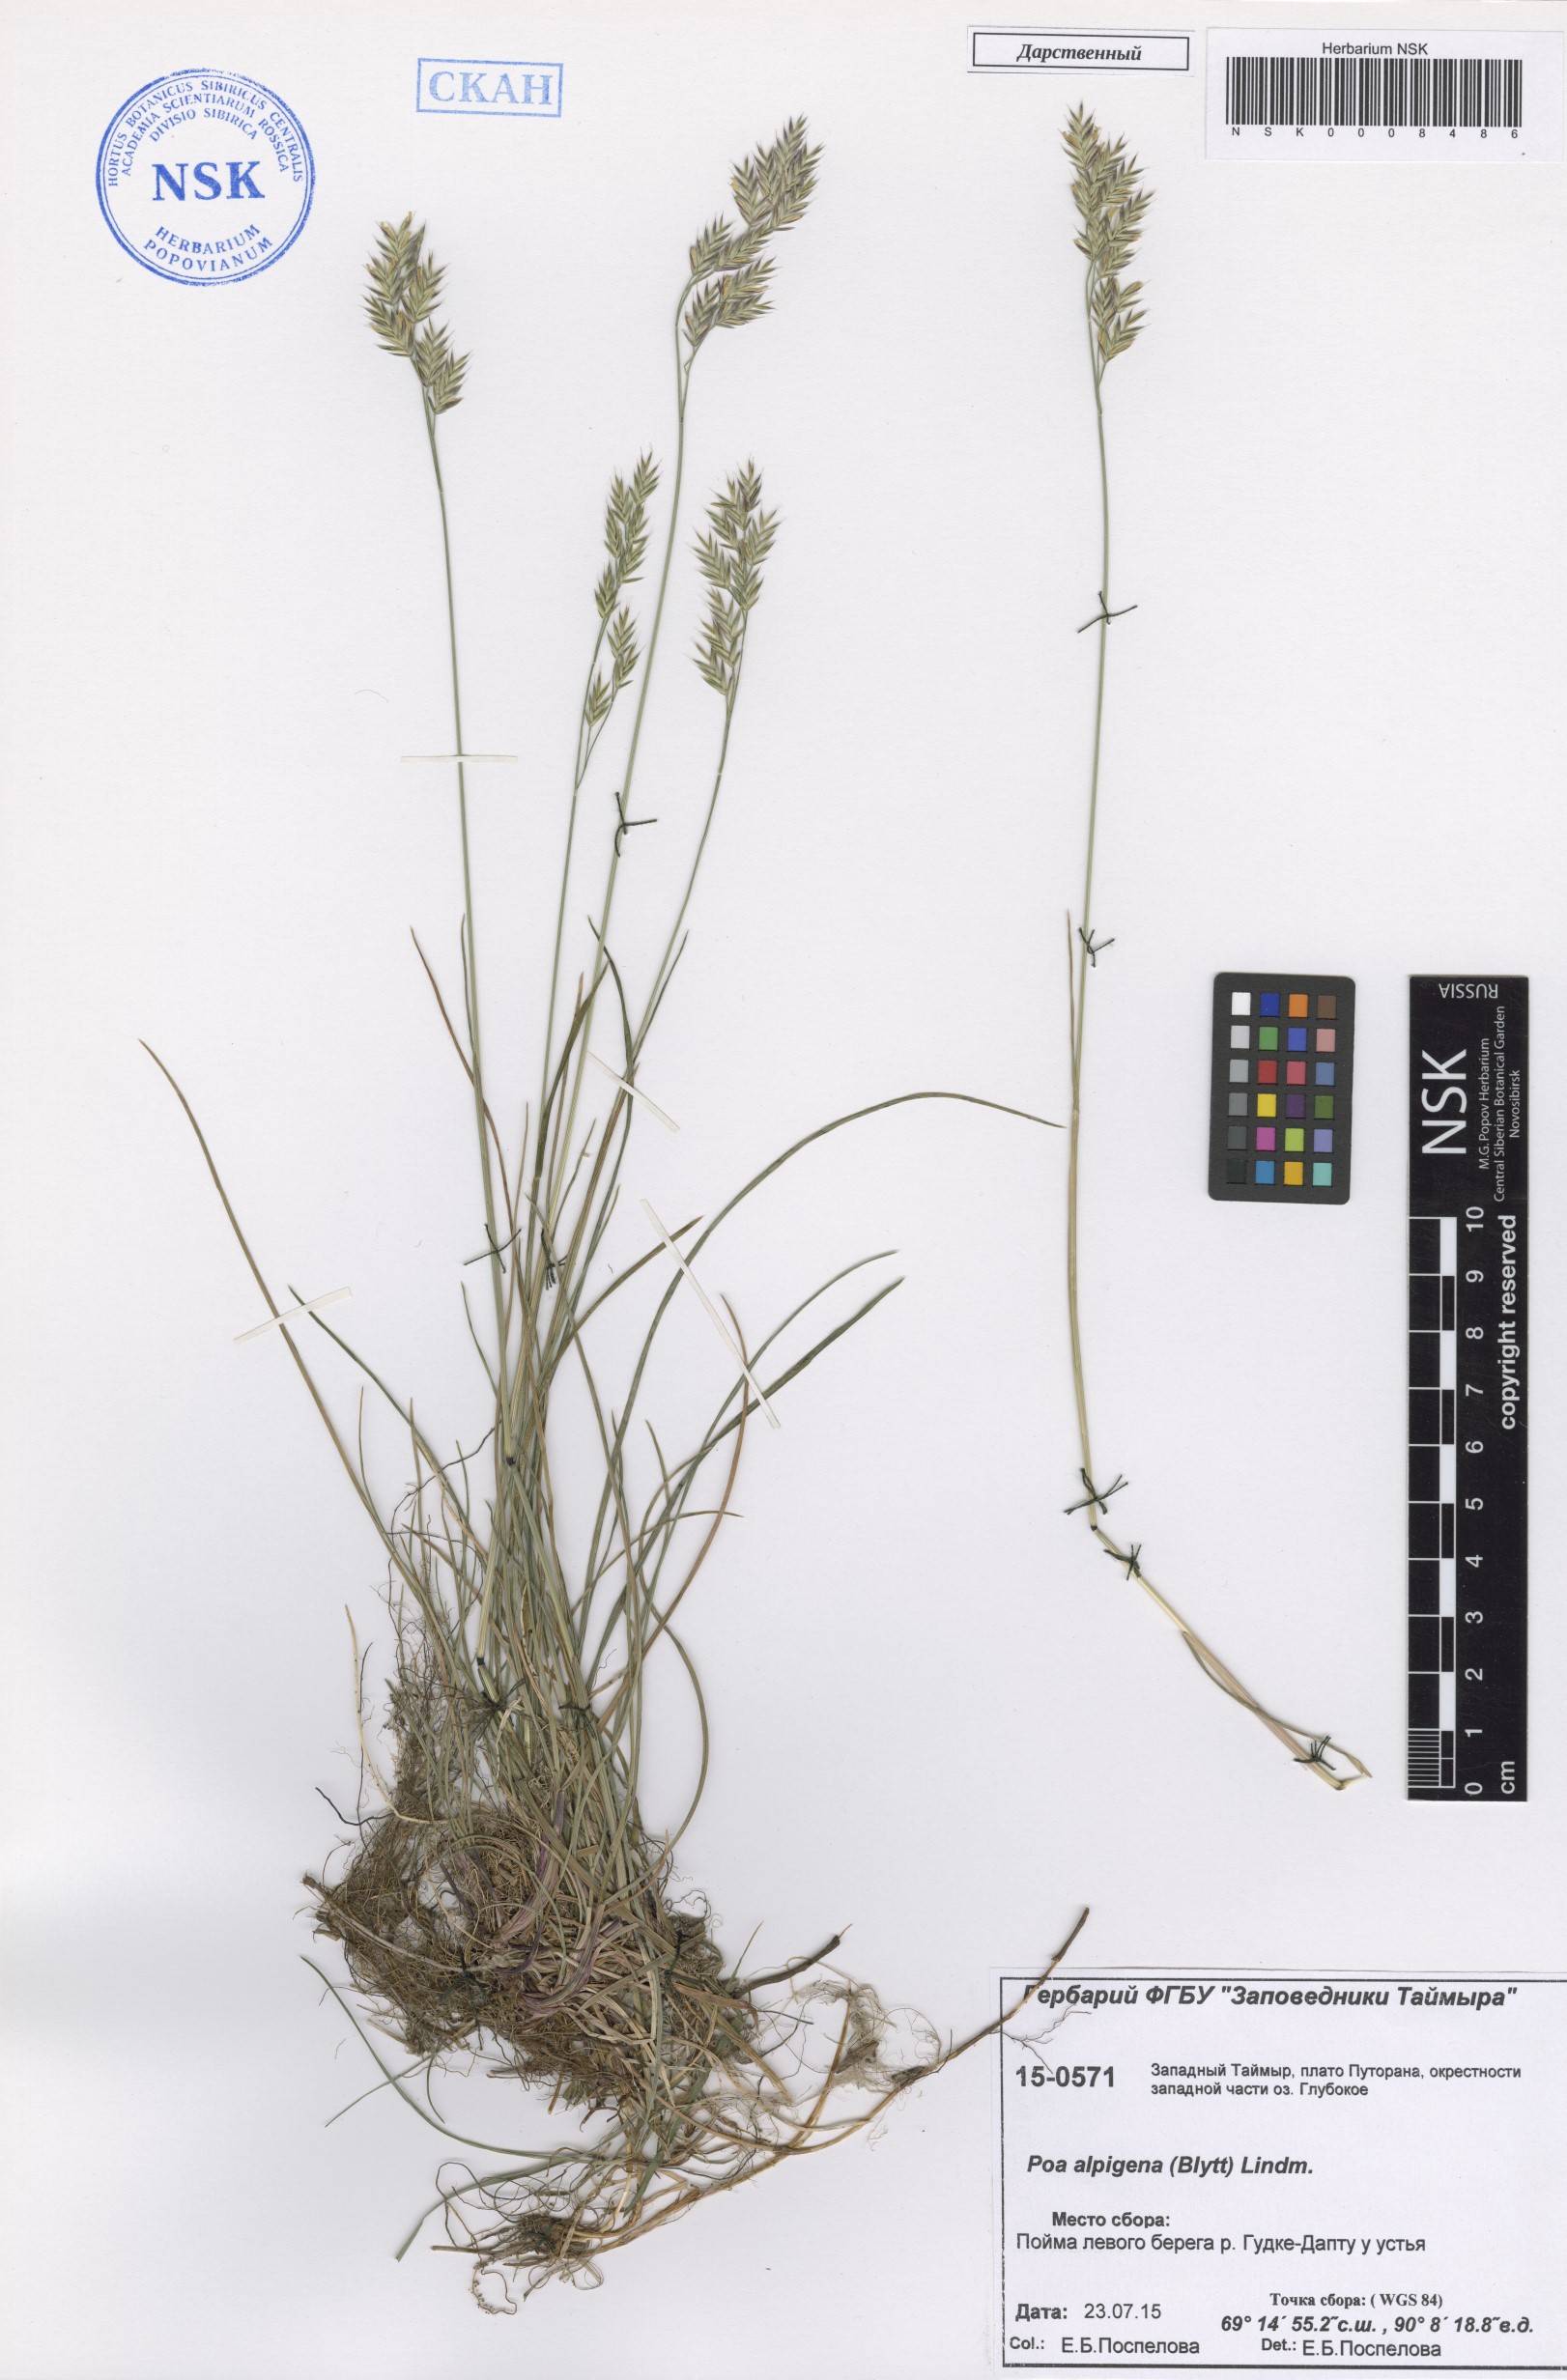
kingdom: Plantae
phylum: Tracheophyta
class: Liliopsida
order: Poales
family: Poaceae
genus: Poa
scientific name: Poa alpigena
